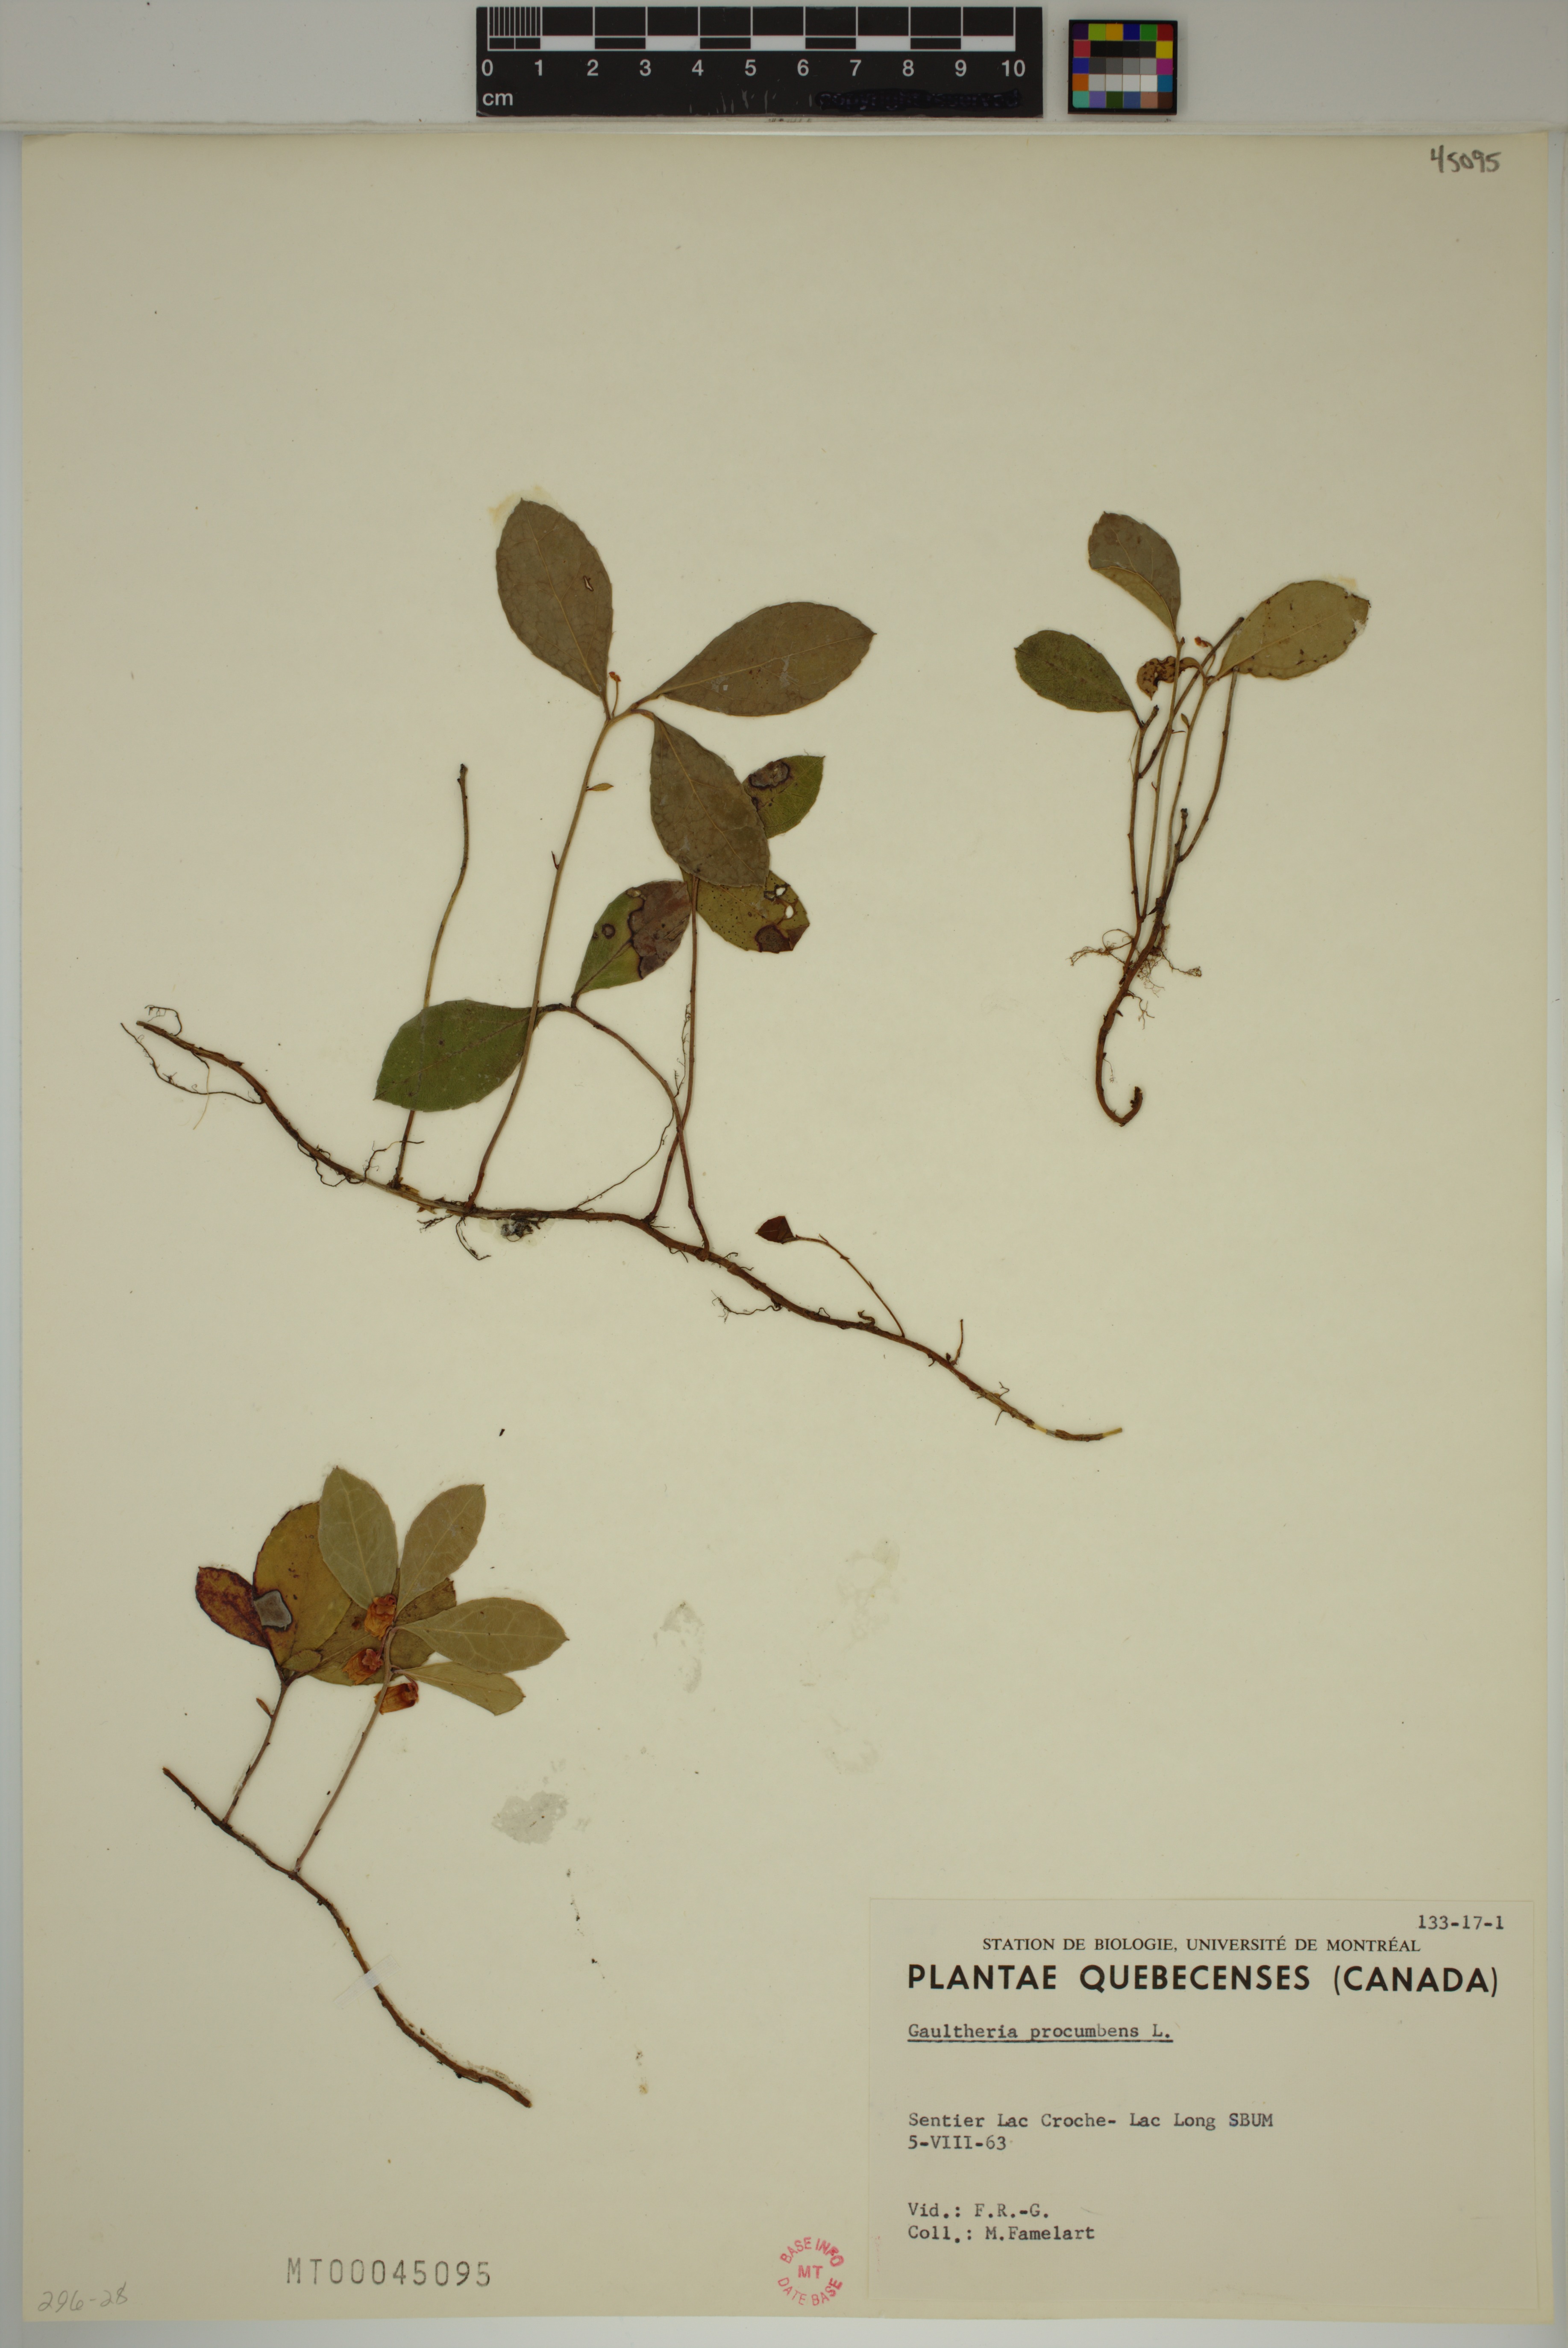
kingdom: Plantae
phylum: Tracheophyta
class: Magnoliopsida
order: Ericales
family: Ericaceae
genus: Gaultheria
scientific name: Gaultheria procumbens
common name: Checkerberry
